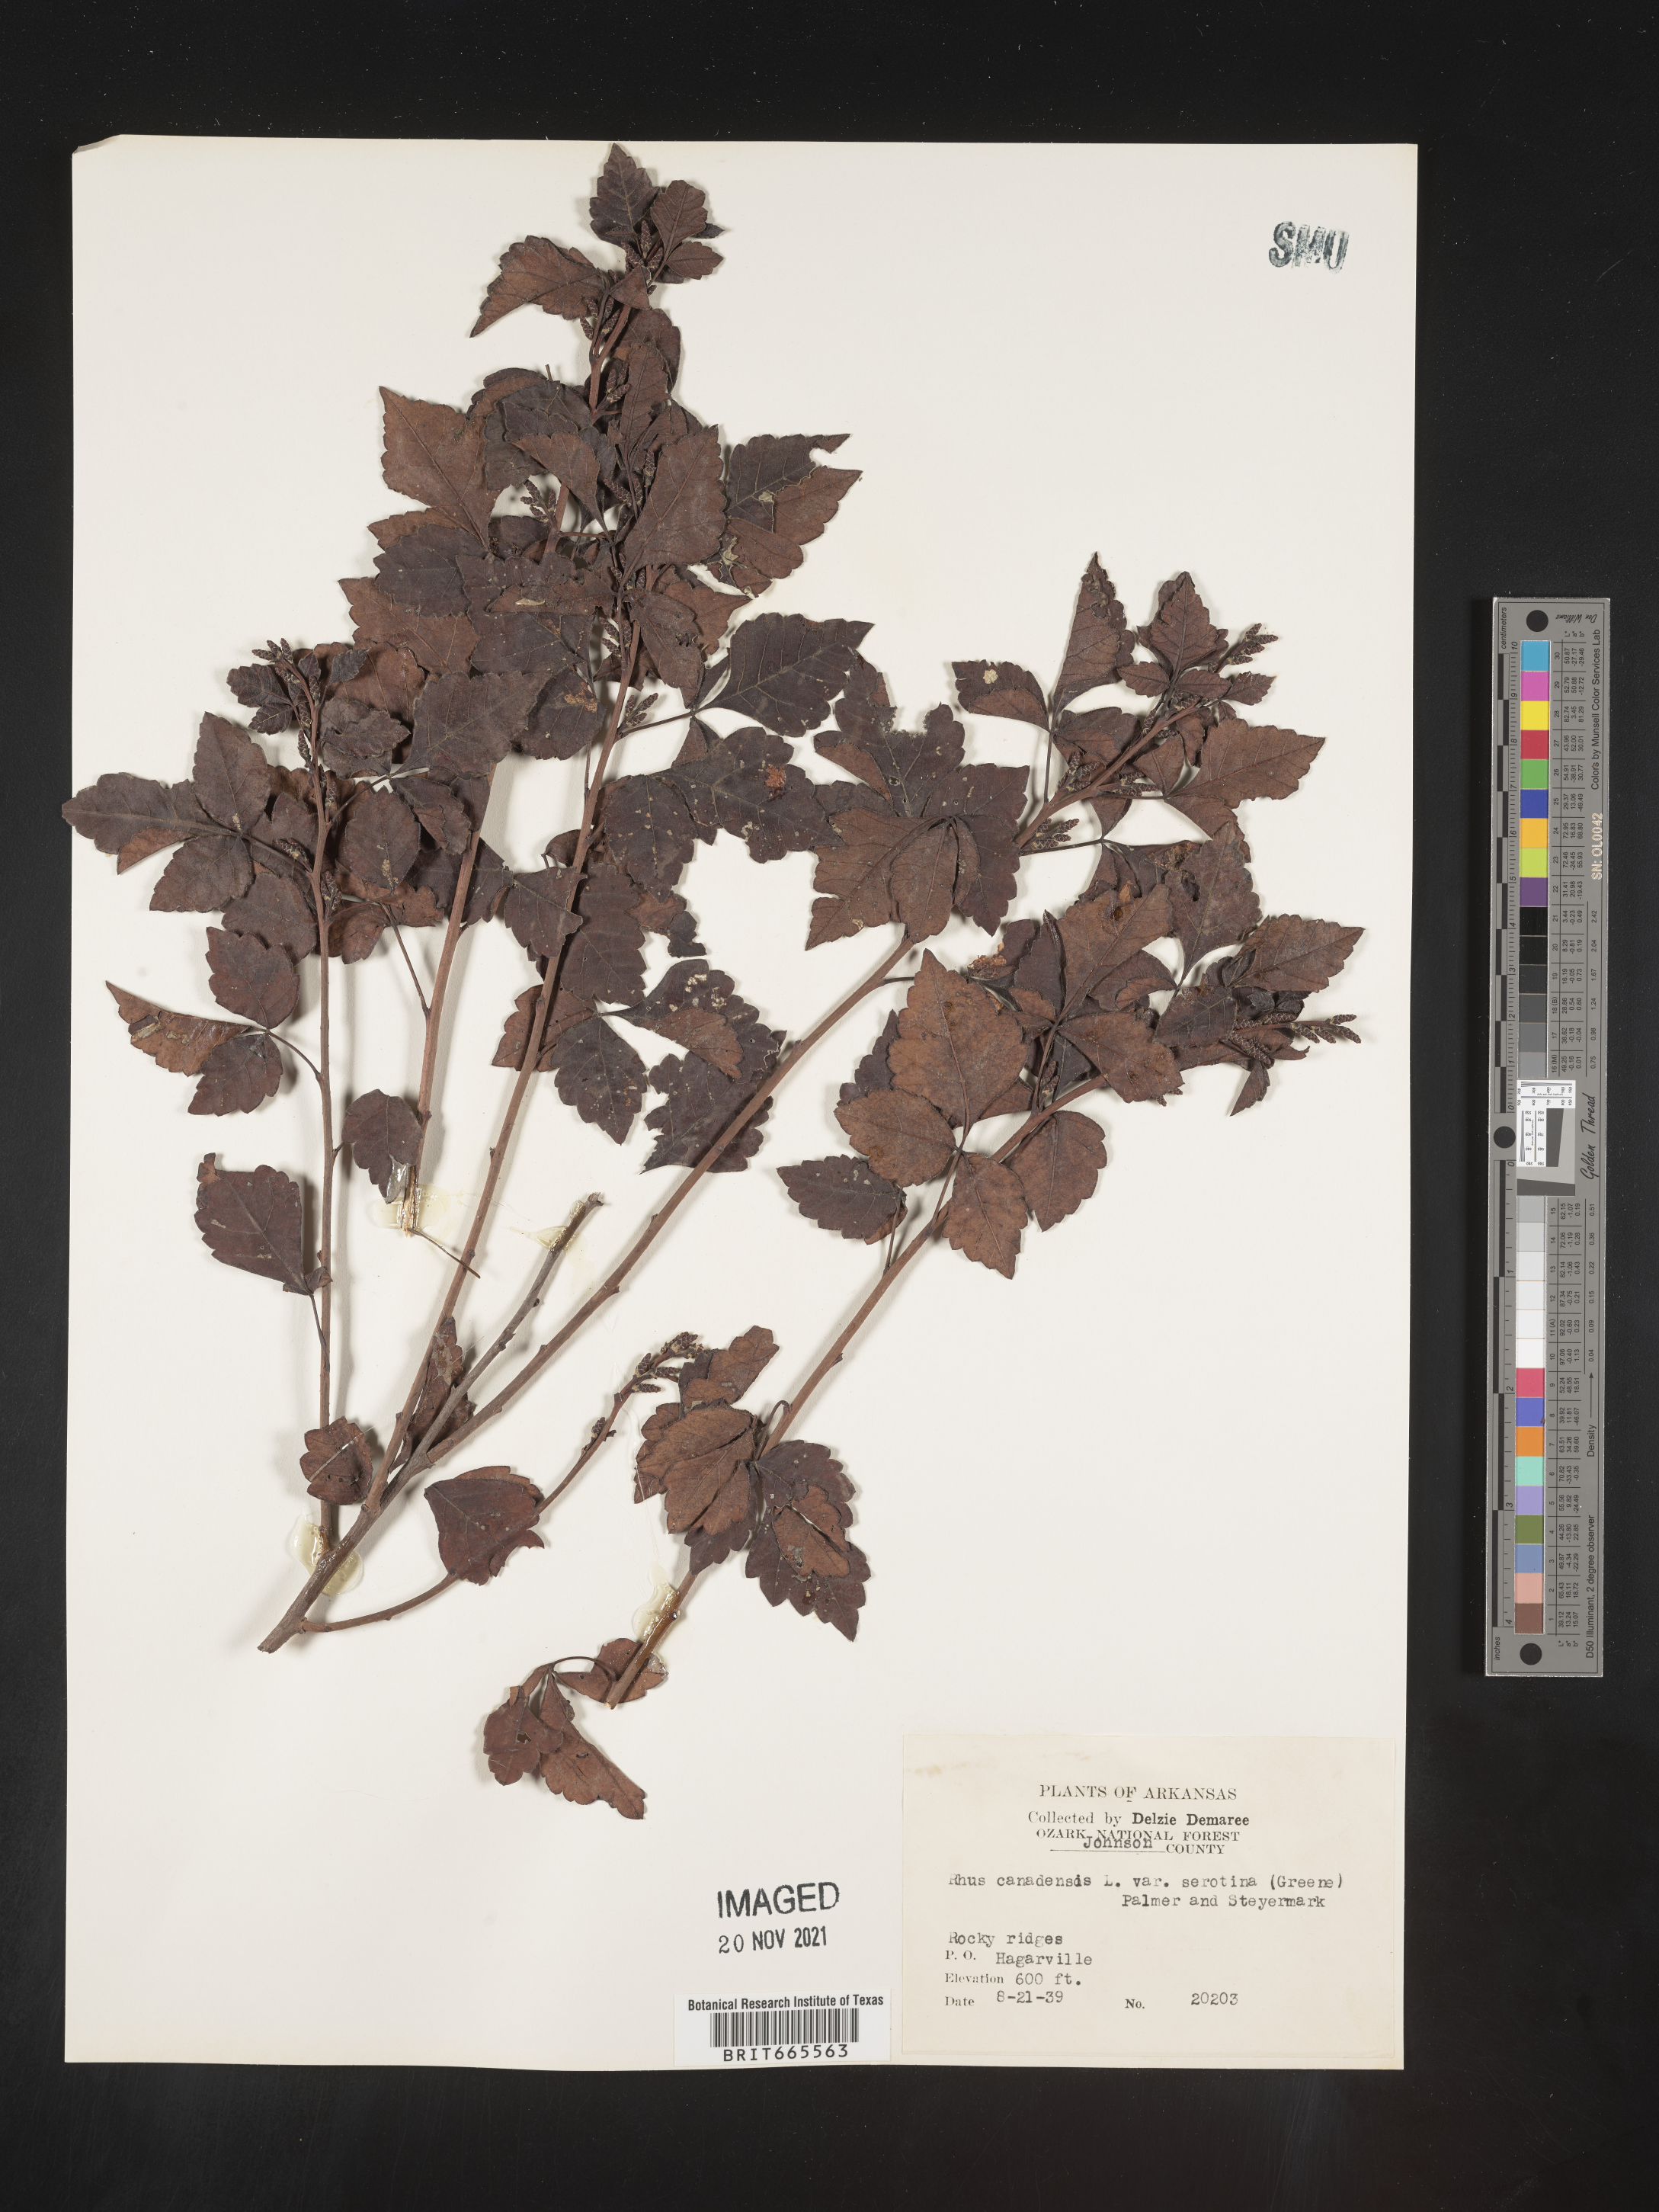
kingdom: Plantae
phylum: Tracheophyta
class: Magnoliopsida
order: Sapindales
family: Anacardiaceae
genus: Rhus
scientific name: Rhus aromatica
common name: Aromatic sumac
